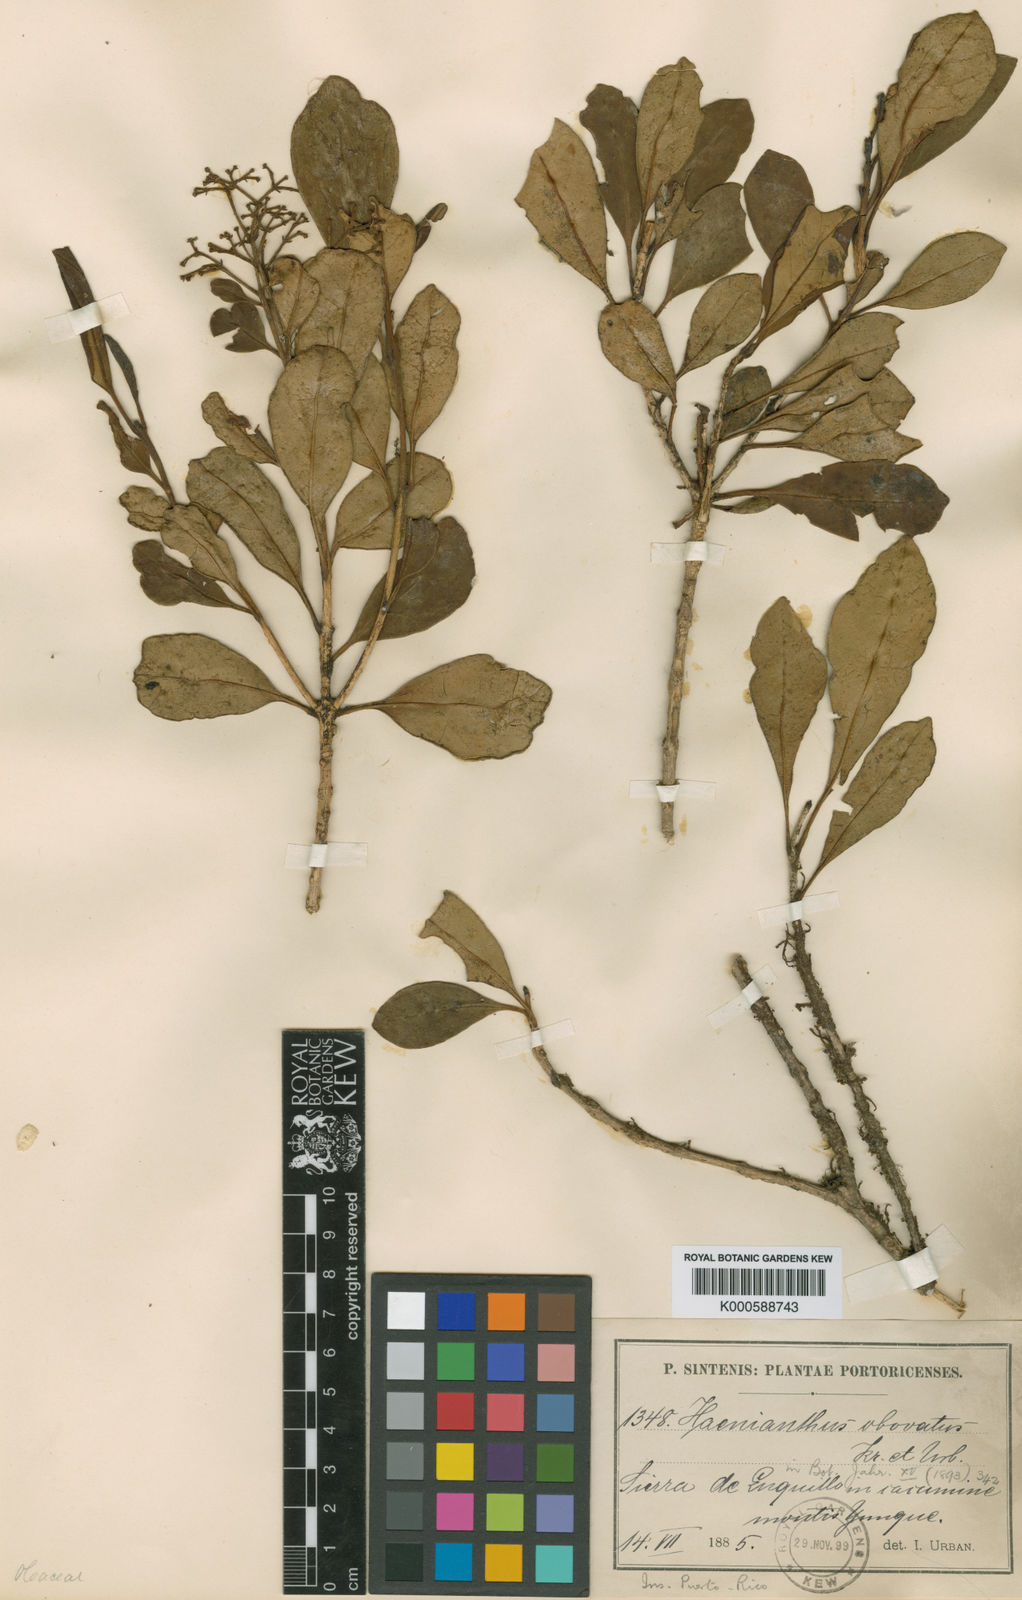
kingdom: Plantae
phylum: Tracheophyta
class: Magnoliopsida
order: Lamiales
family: Oleaceae
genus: Haenianthus
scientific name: Haenianthus salicifolius
